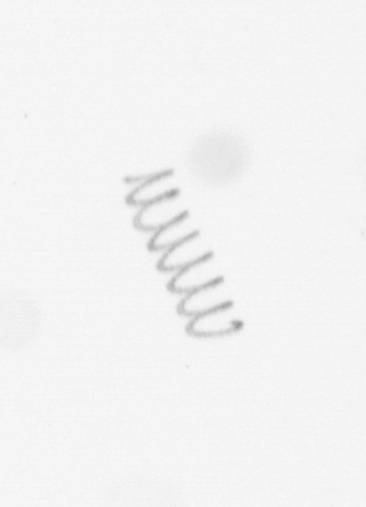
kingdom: Chromista
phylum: Ochrophyta
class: Bacillariophyceae
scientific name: Bacillariophyceae
